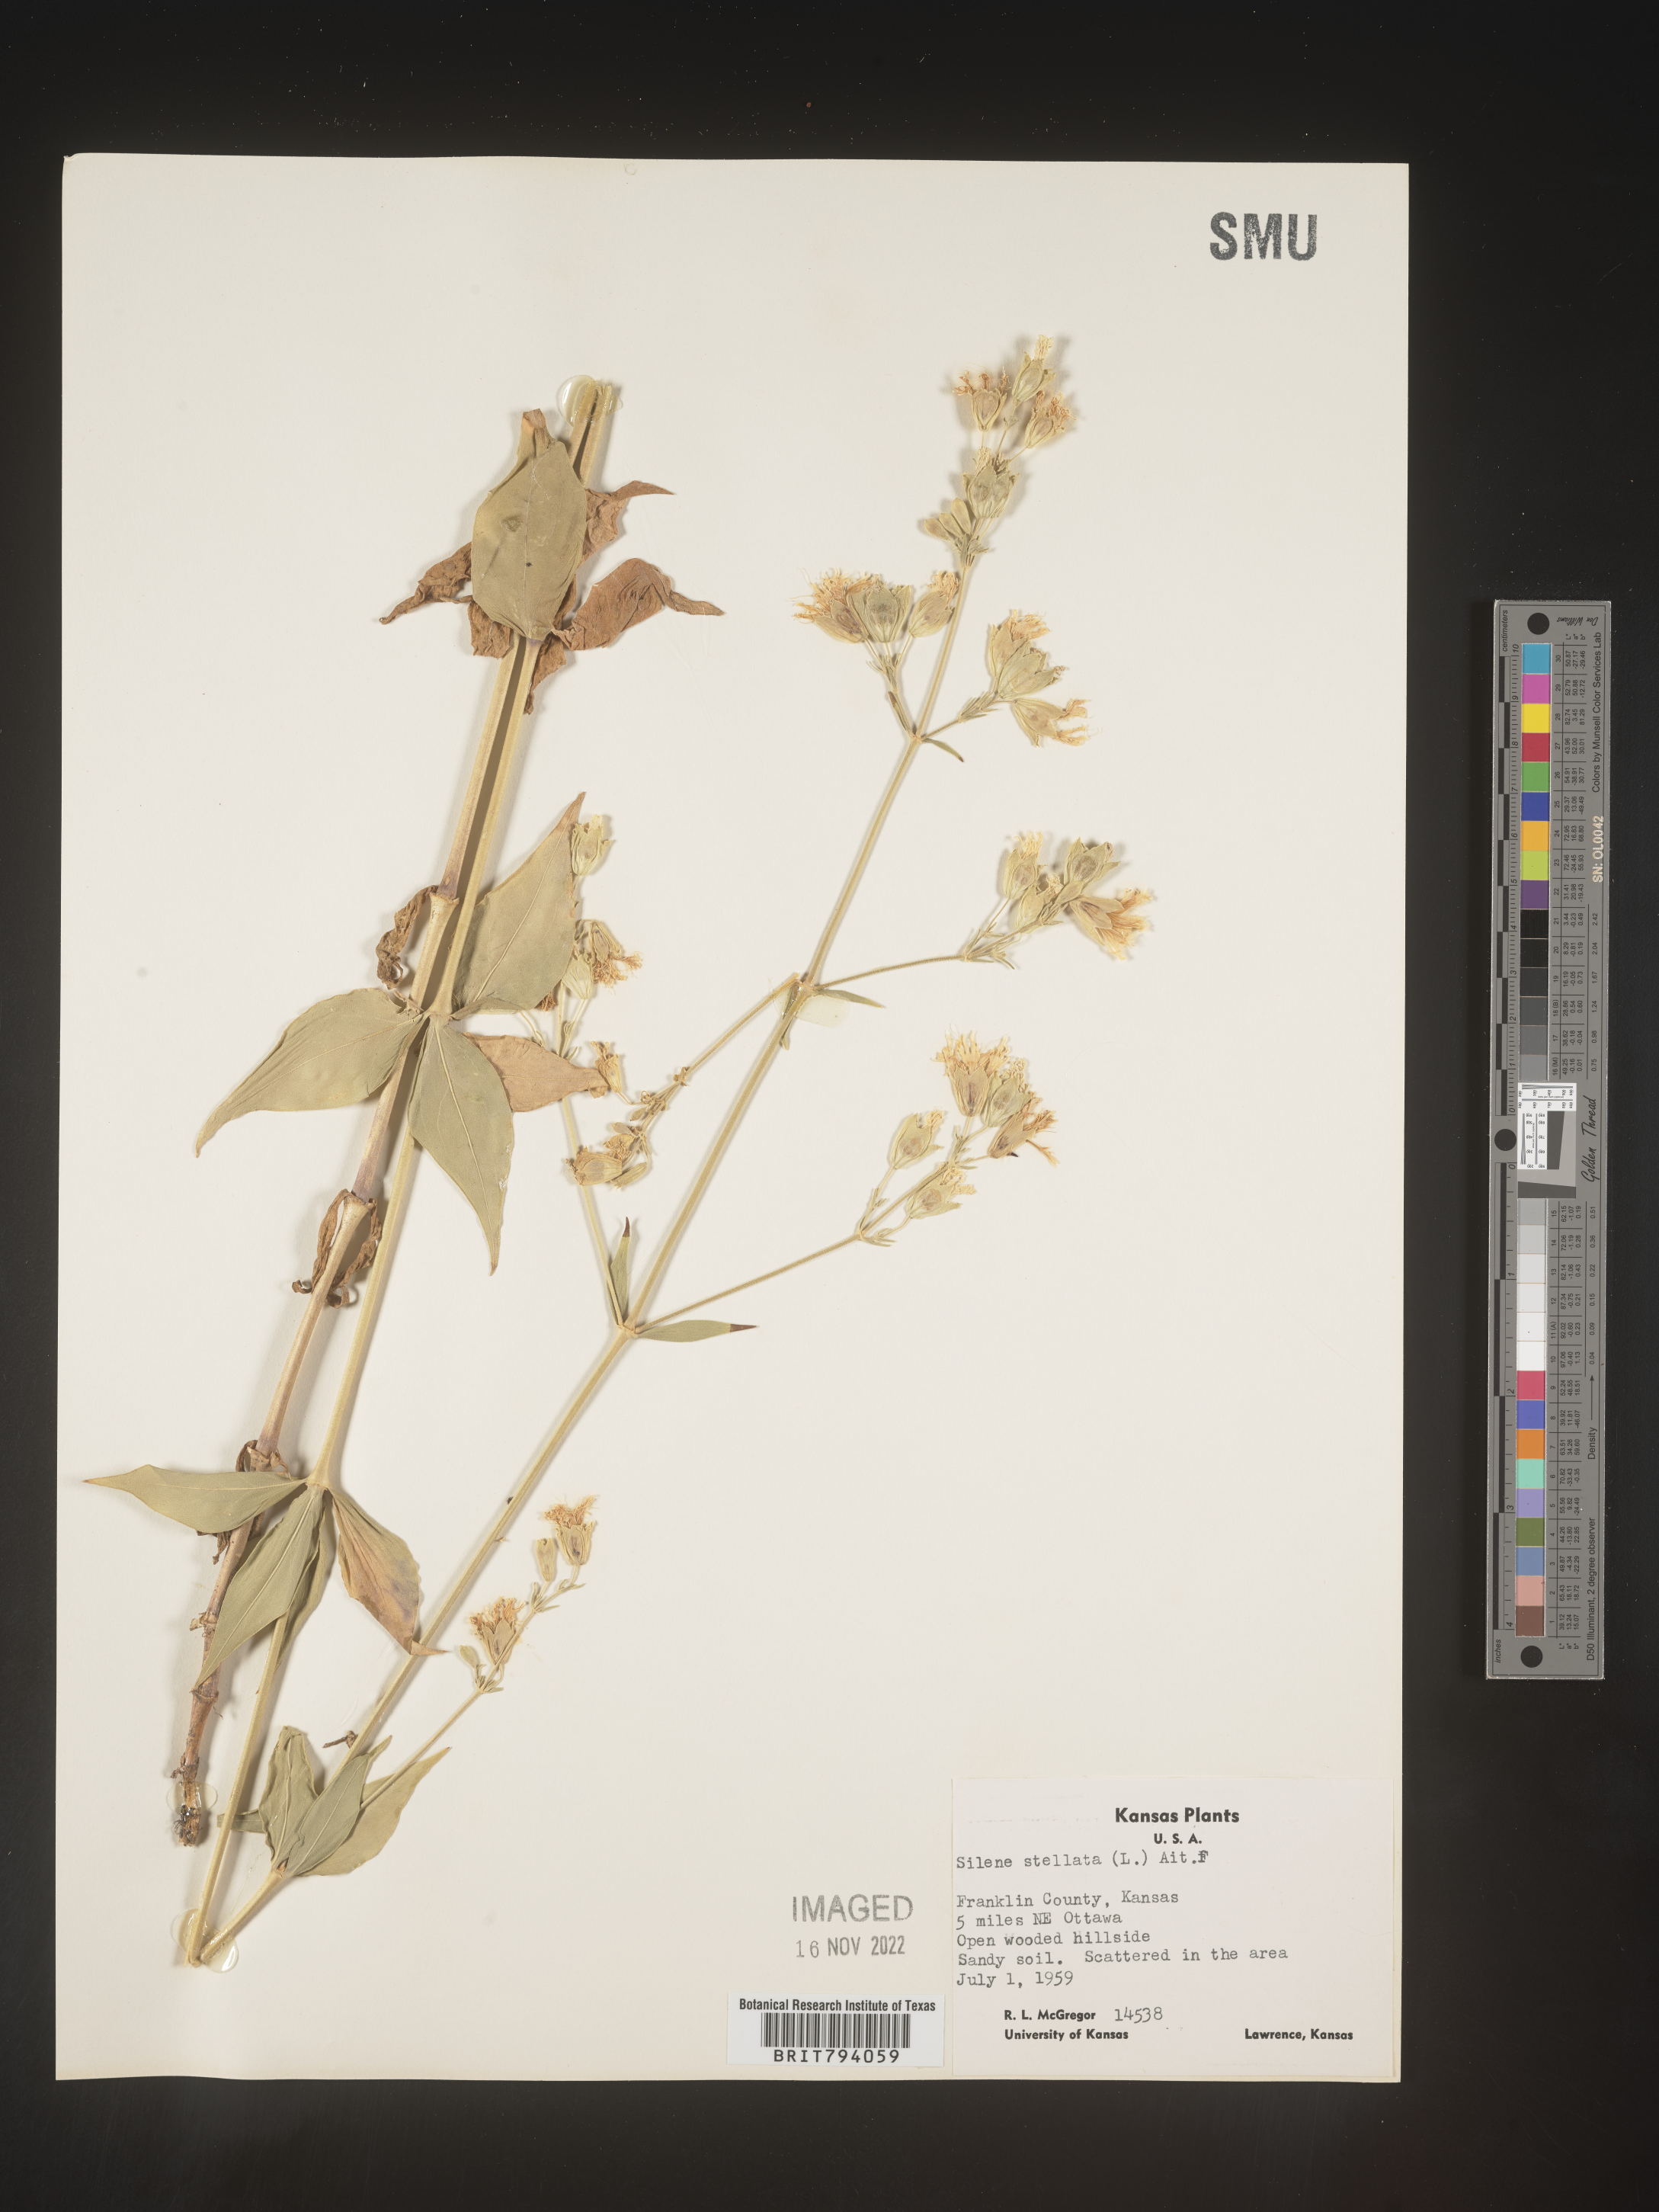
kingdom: Plantae
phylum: Tracheophyta
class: Magnoliopsida
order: Caryophyllales
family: Caryophyllaceae
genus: Silene
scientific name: Silene stellata
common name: Starry campion
